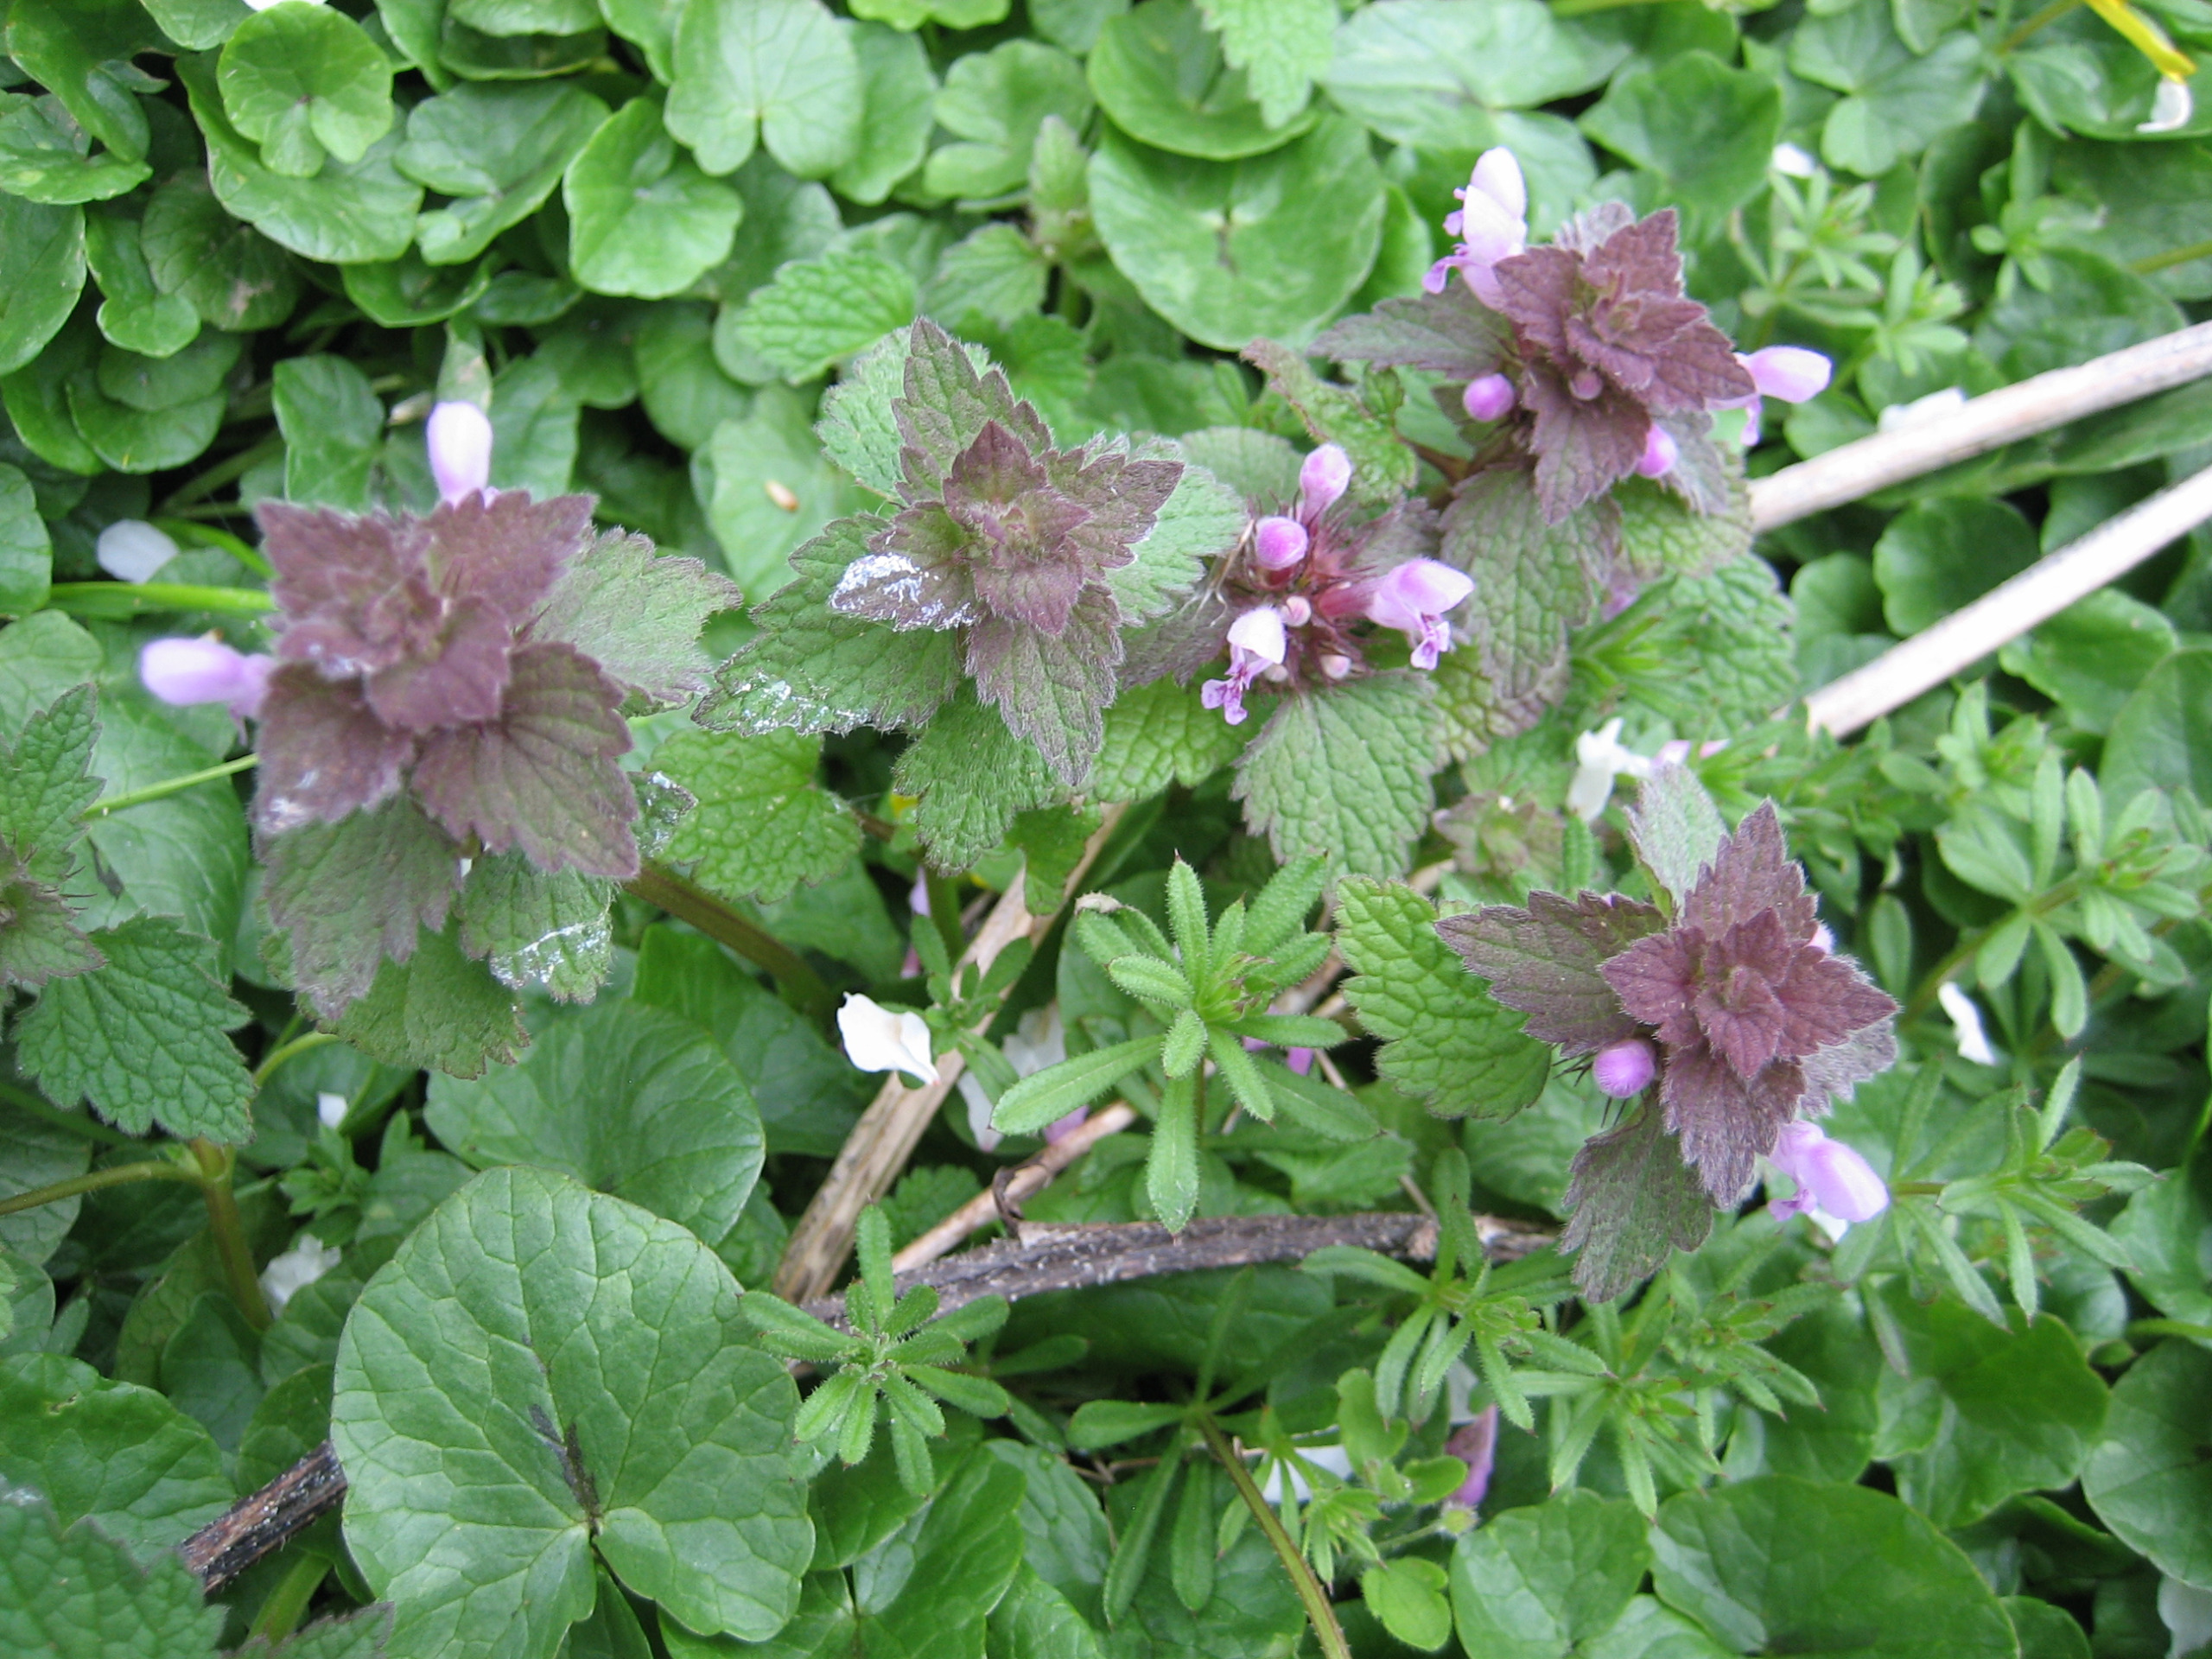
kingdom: Plantae
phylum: Tracheophyta
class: Magnoliopsida
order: Lamiales
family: Lamiaceae
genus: Lamium
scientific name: Lamium purpureum
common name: Rød tvetand
